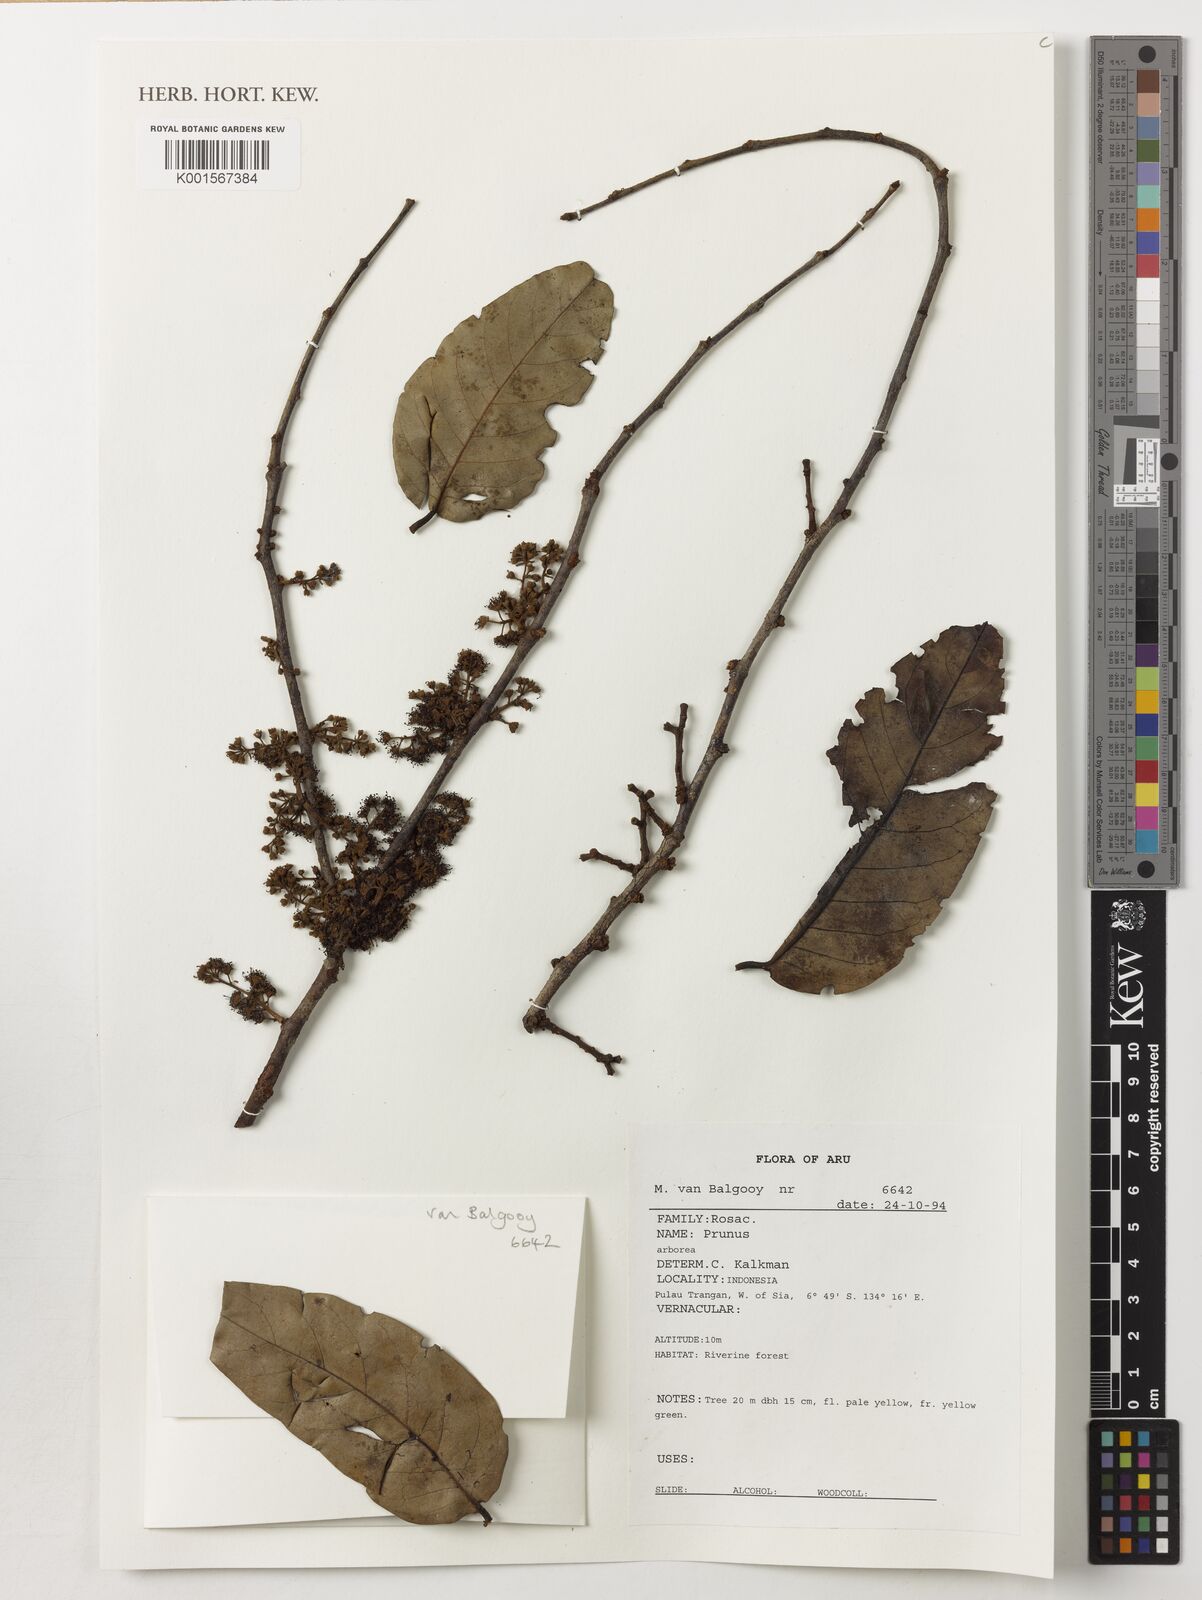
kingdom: Plantae
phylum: Tracheophyta
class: Magnoliopsida
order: Rosales
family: Rosaceae
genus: Prunus
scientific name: Prunus
